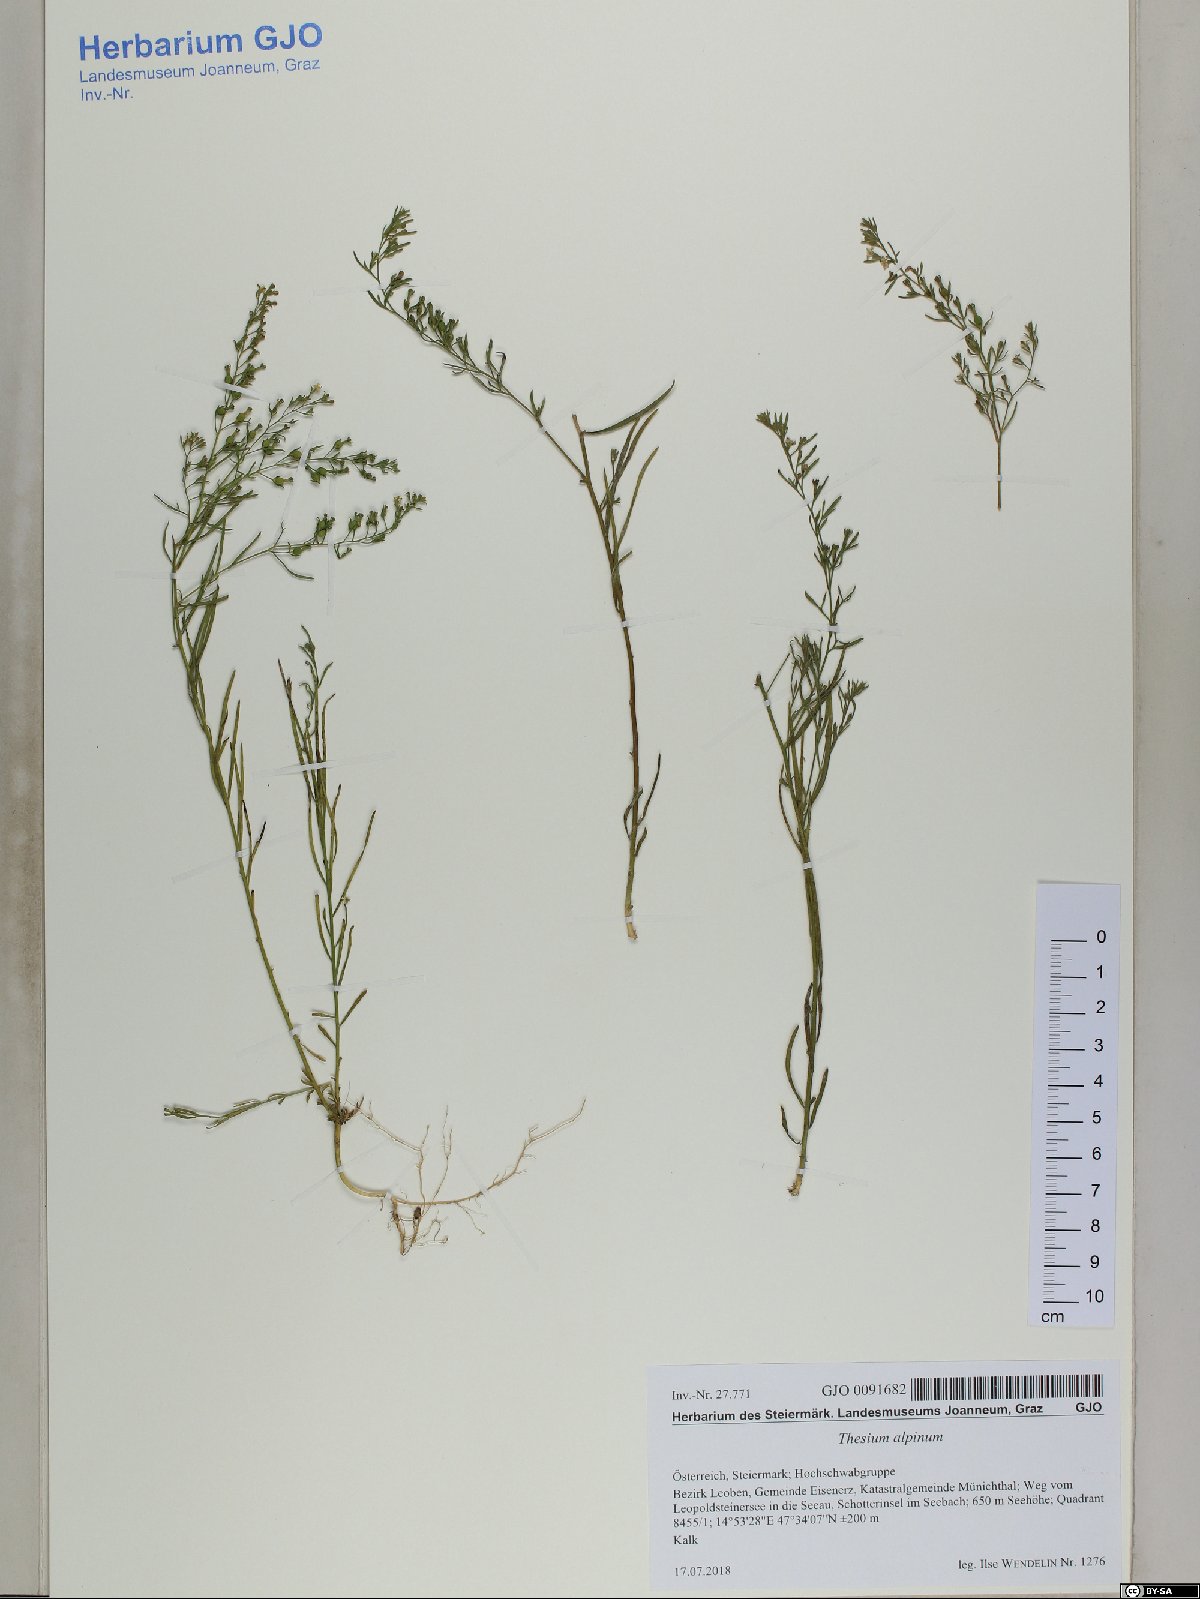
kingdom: Plantae
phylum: Tracheophyta
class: Magnoliopsida
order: Santalales
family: Thesiaceae
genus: Thesium
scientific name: Thesium alpinum
